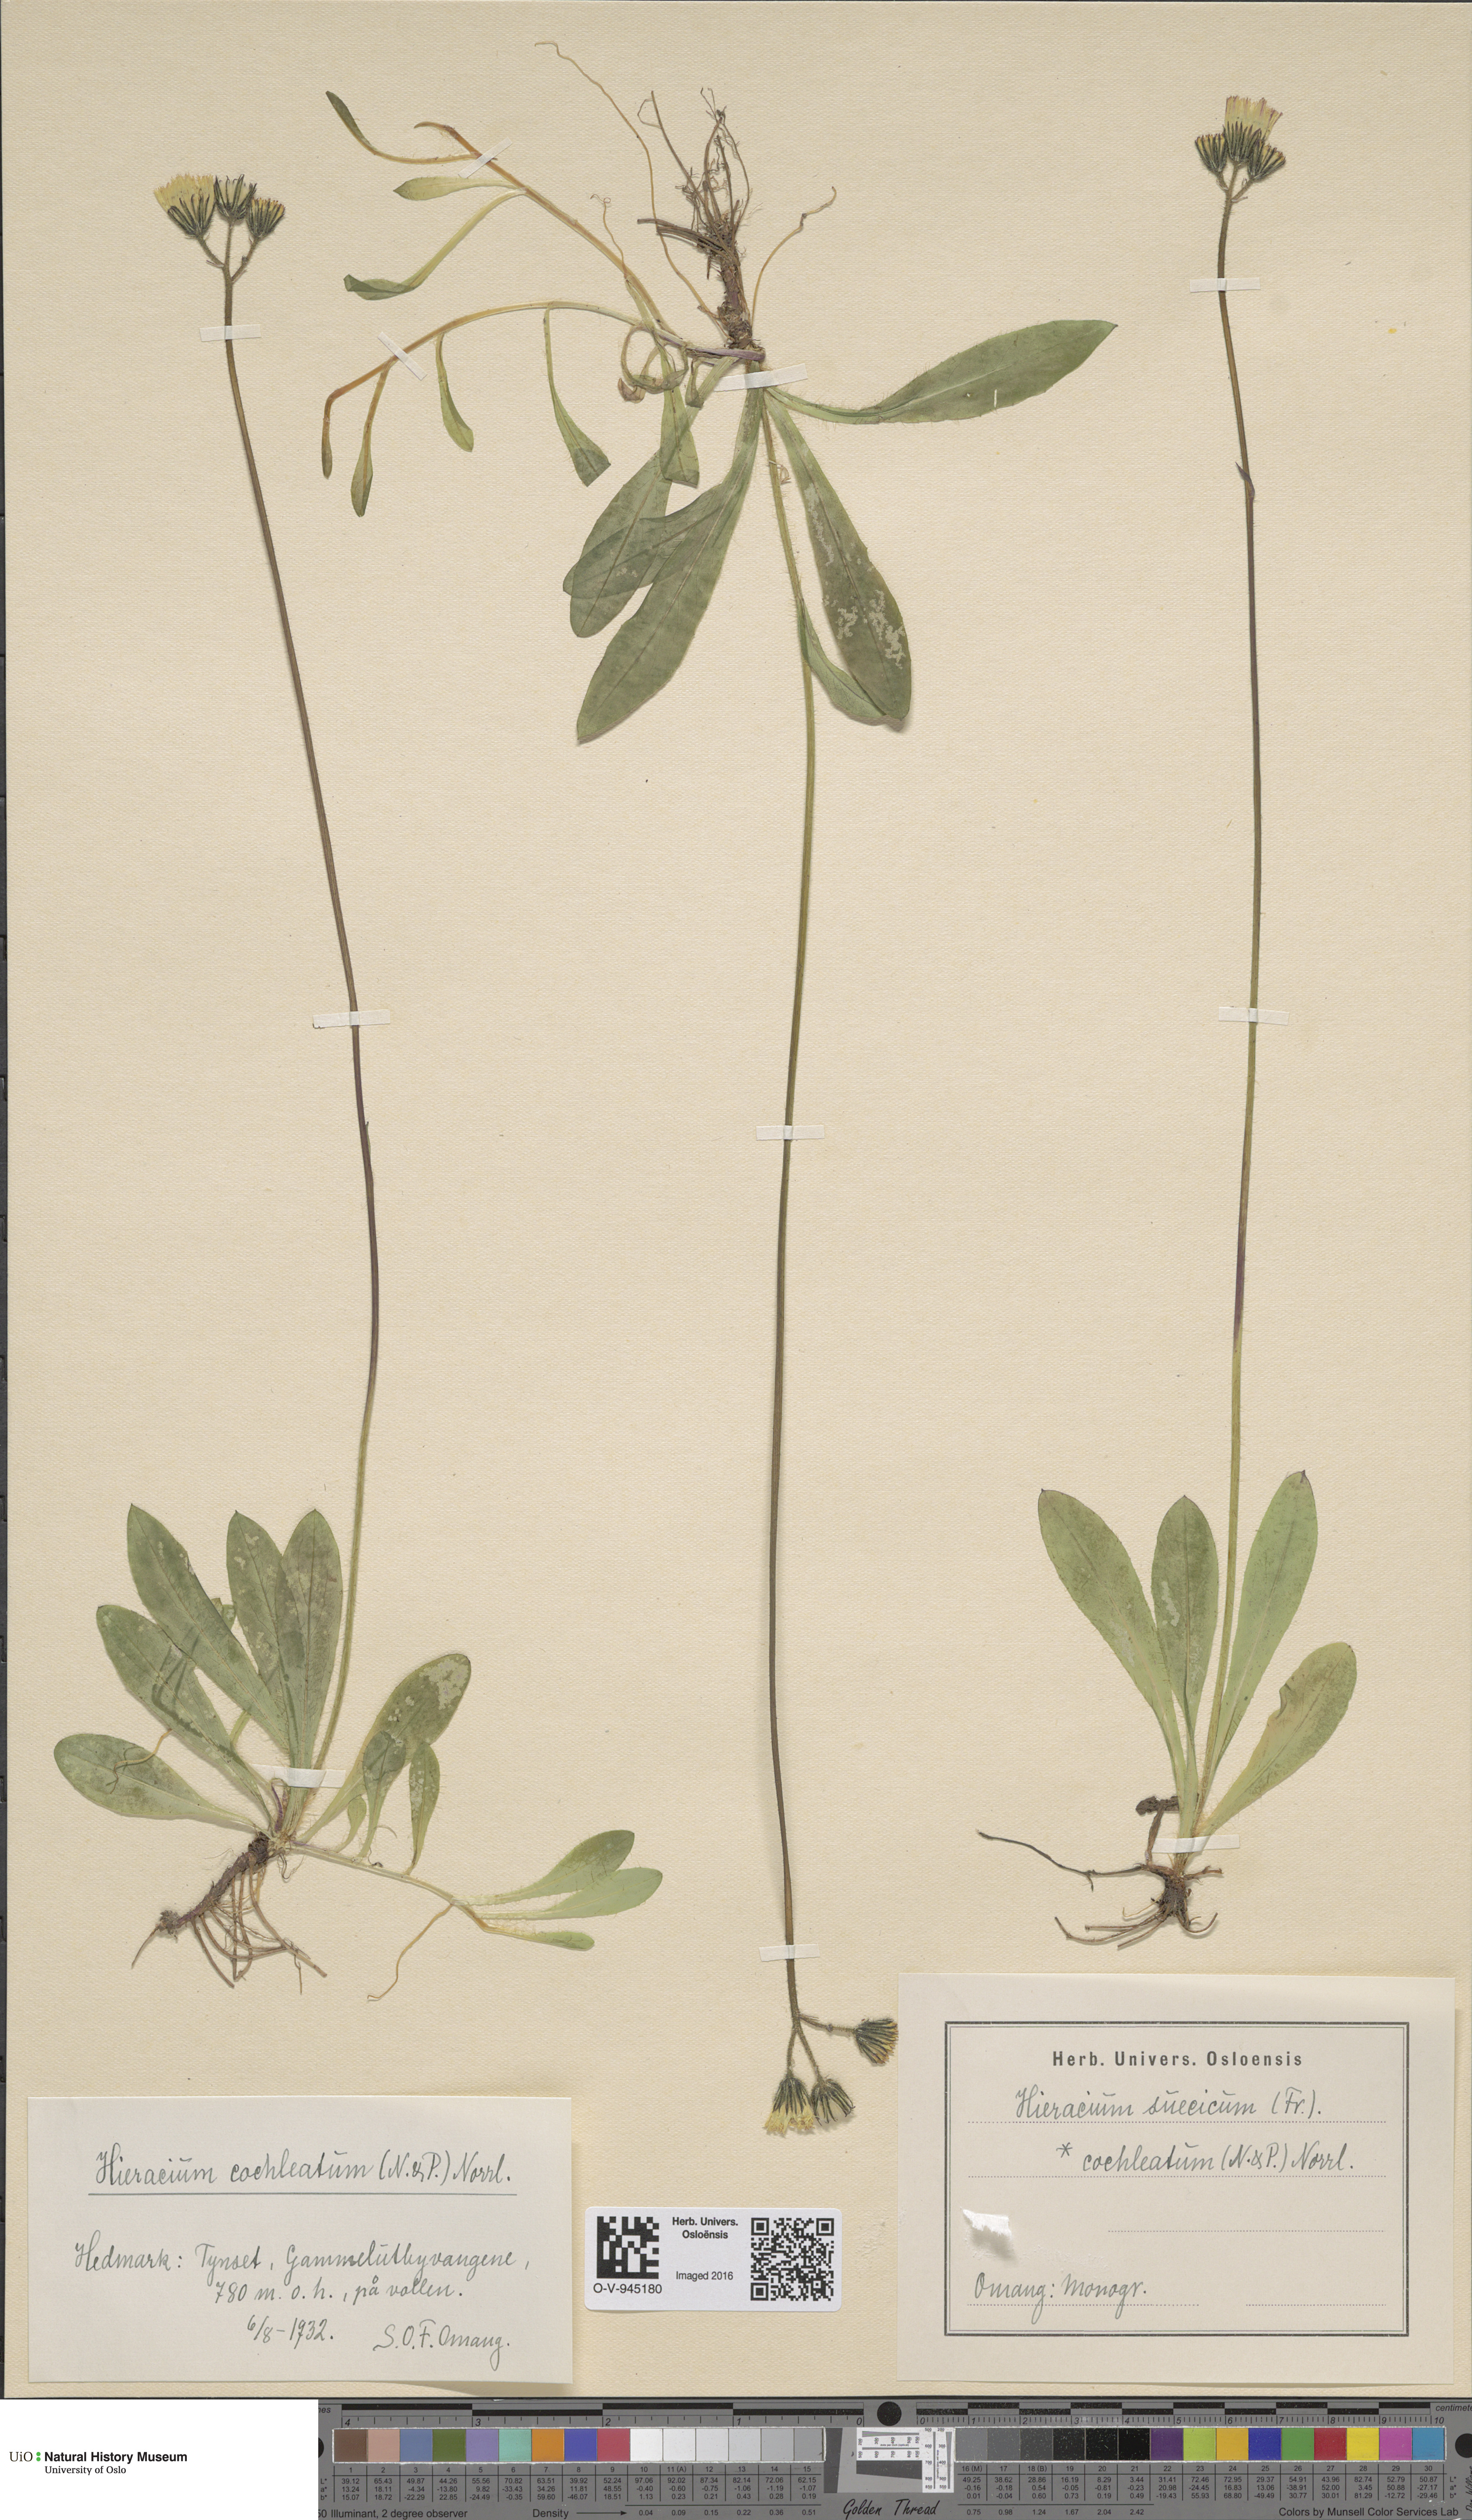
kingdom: Plantae
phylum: Tracheophyta
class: Magnoliopsida
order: Asterales
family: Asteraceae
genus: Pilosella
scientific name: Pilosella dubia
